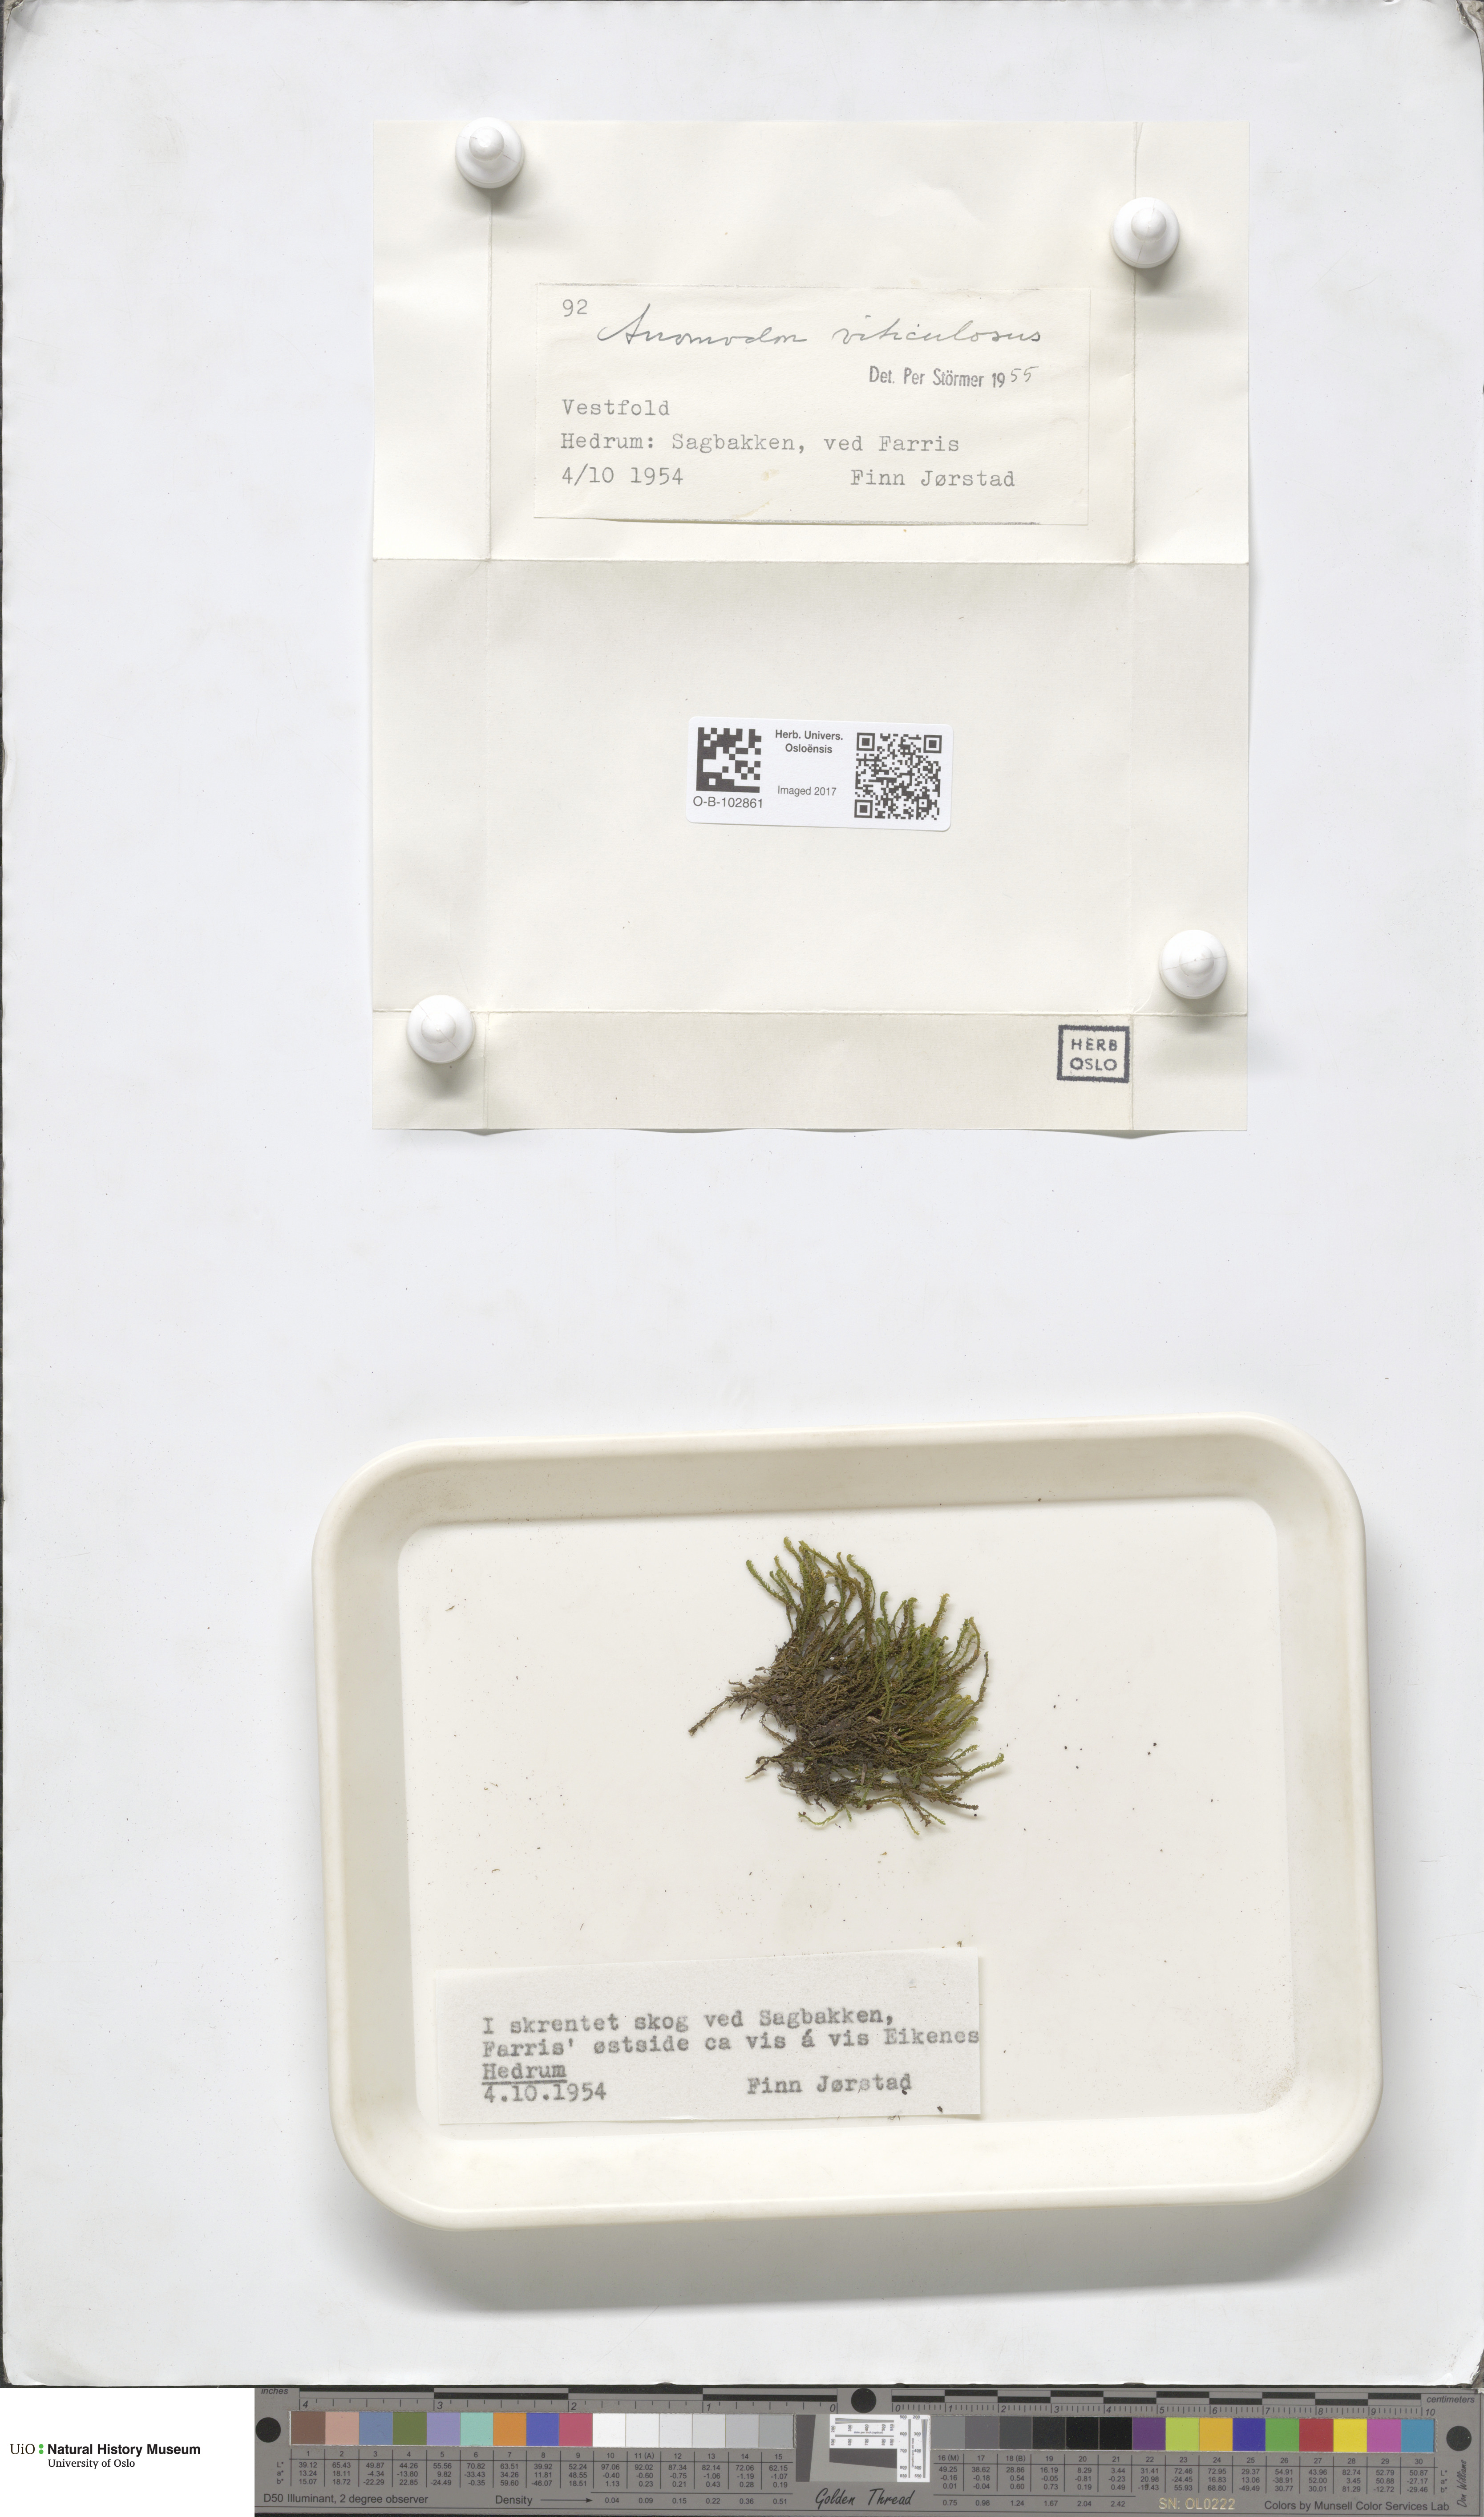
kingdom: Plantae
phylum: Bryophyta
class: Bryopsida
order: Hypnales
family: Anomodontaceae
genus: Anomodon
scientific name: Anomodon viticulosus
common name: Tall anomodon
